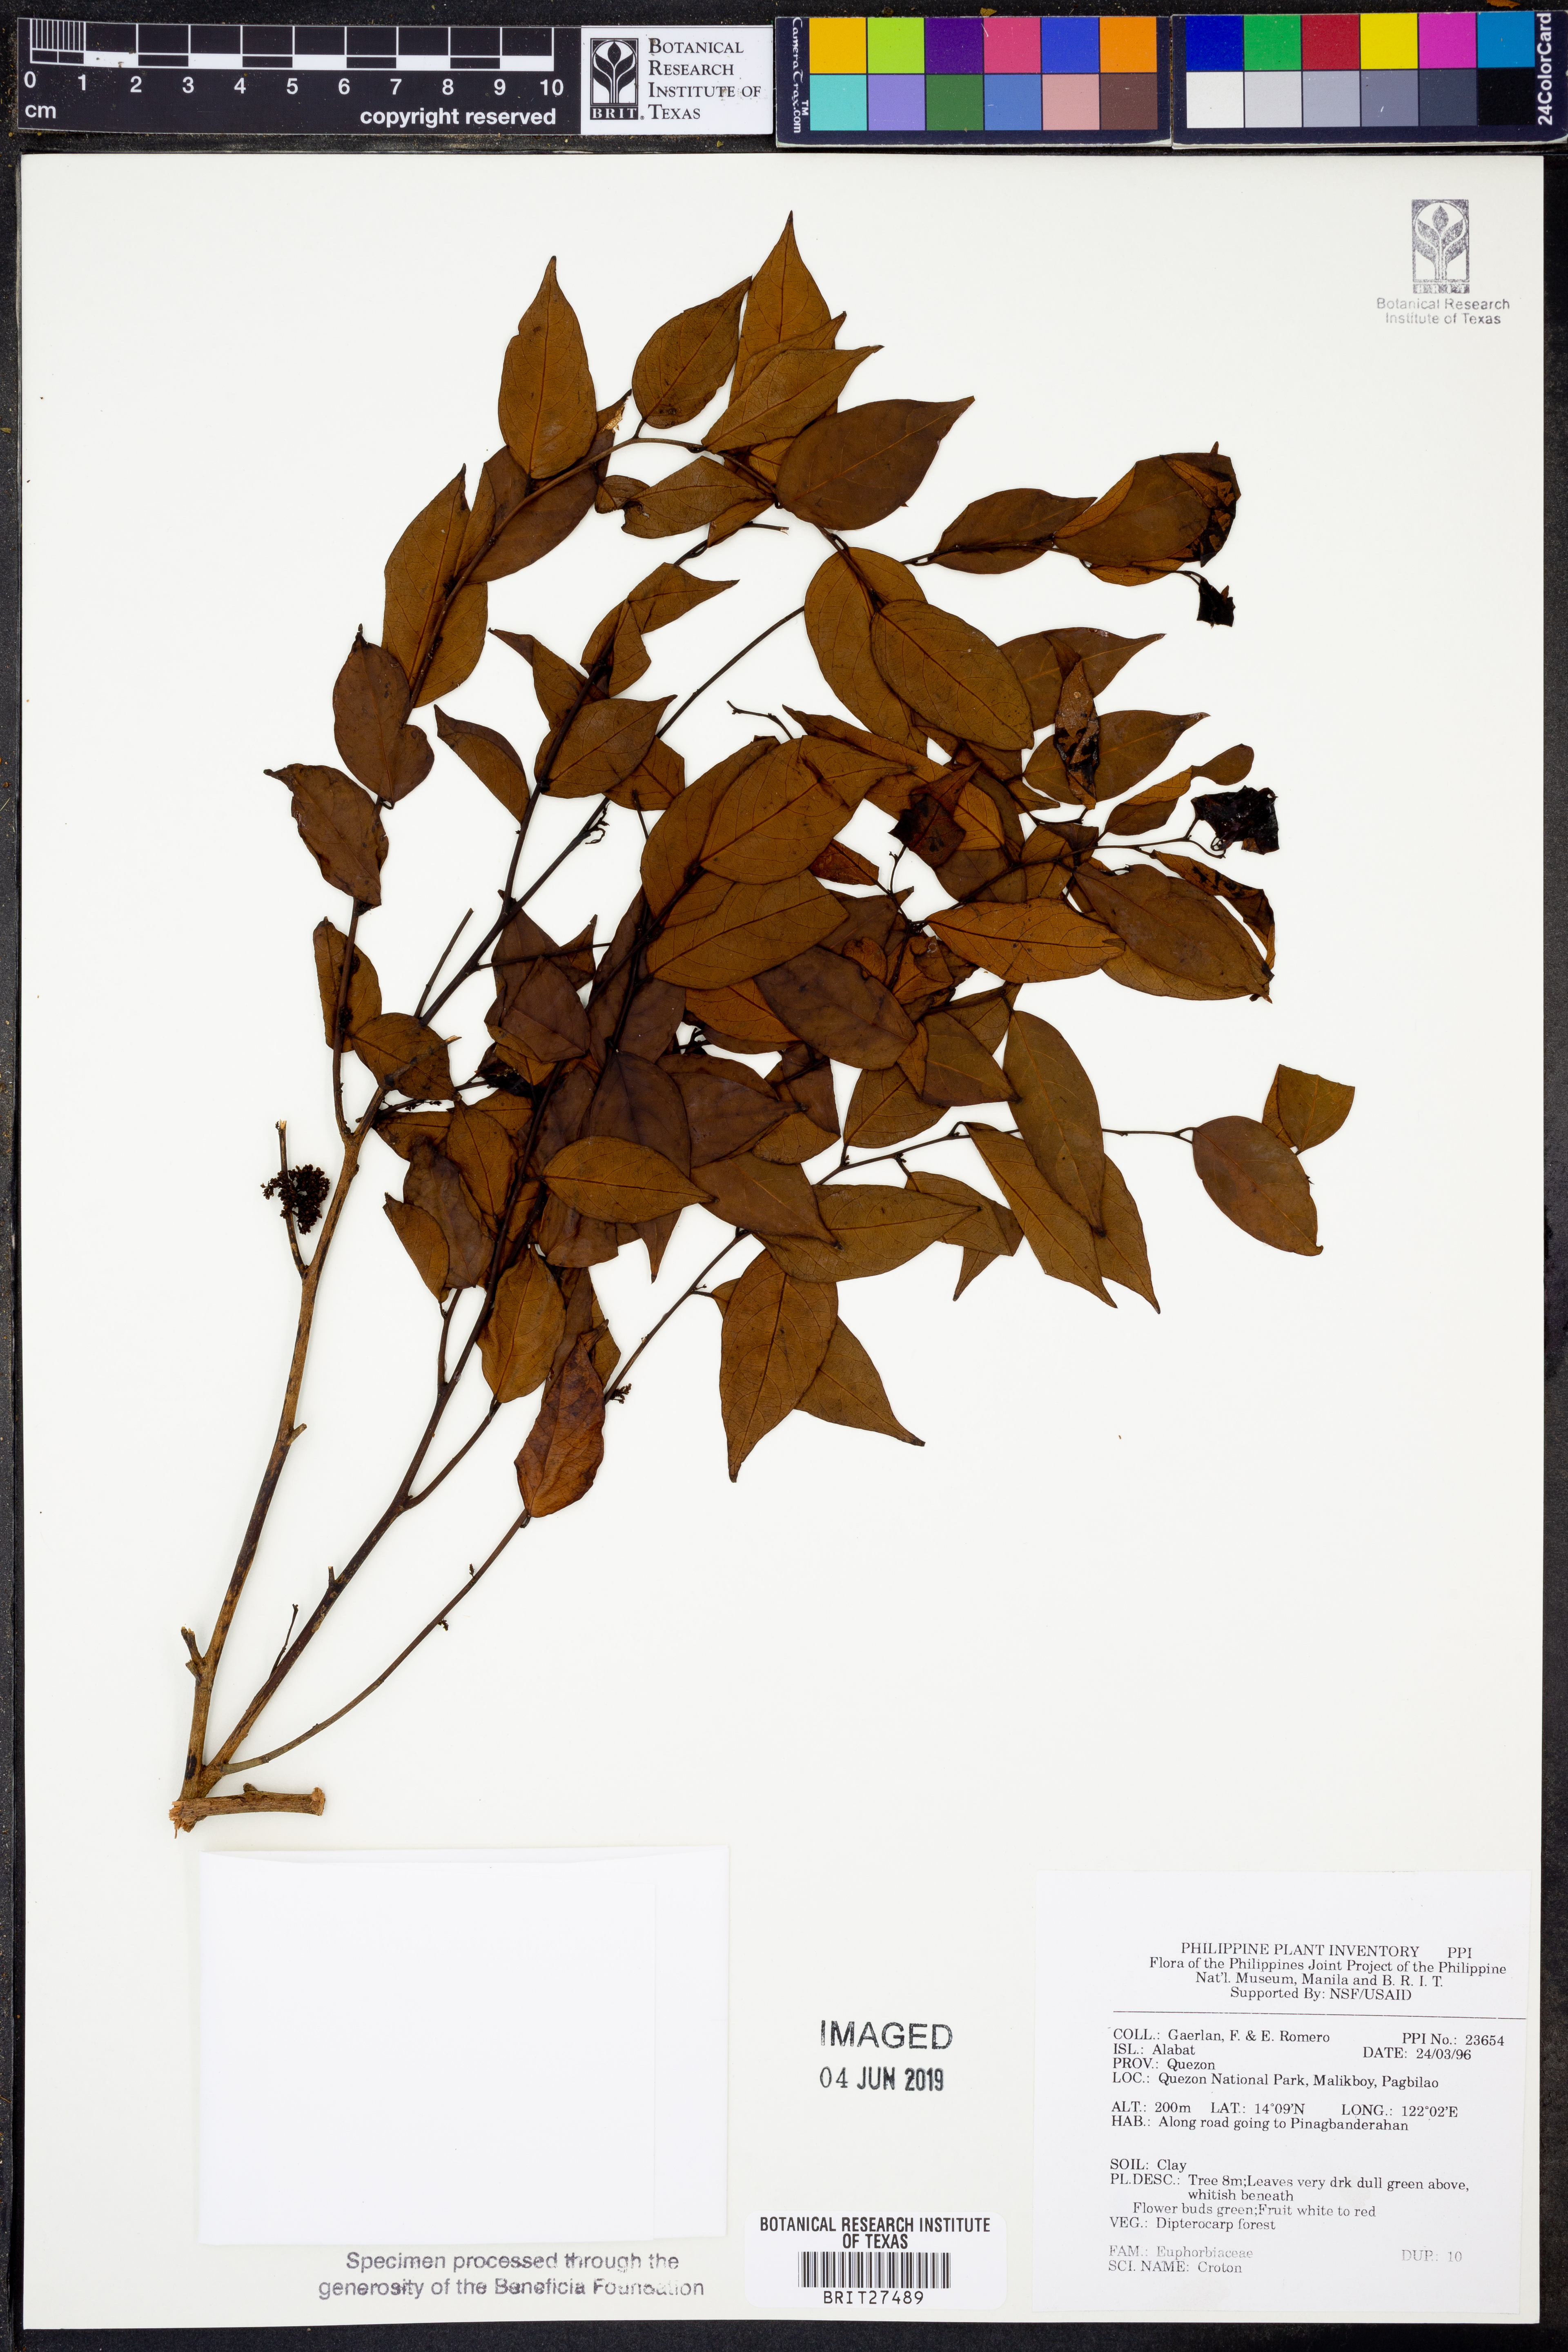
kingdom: Plantae
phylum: Tracheophyta
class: Magnoliopsida
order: Malpighiales
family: Euphorbiaceae
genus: Croton
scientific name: Croton
